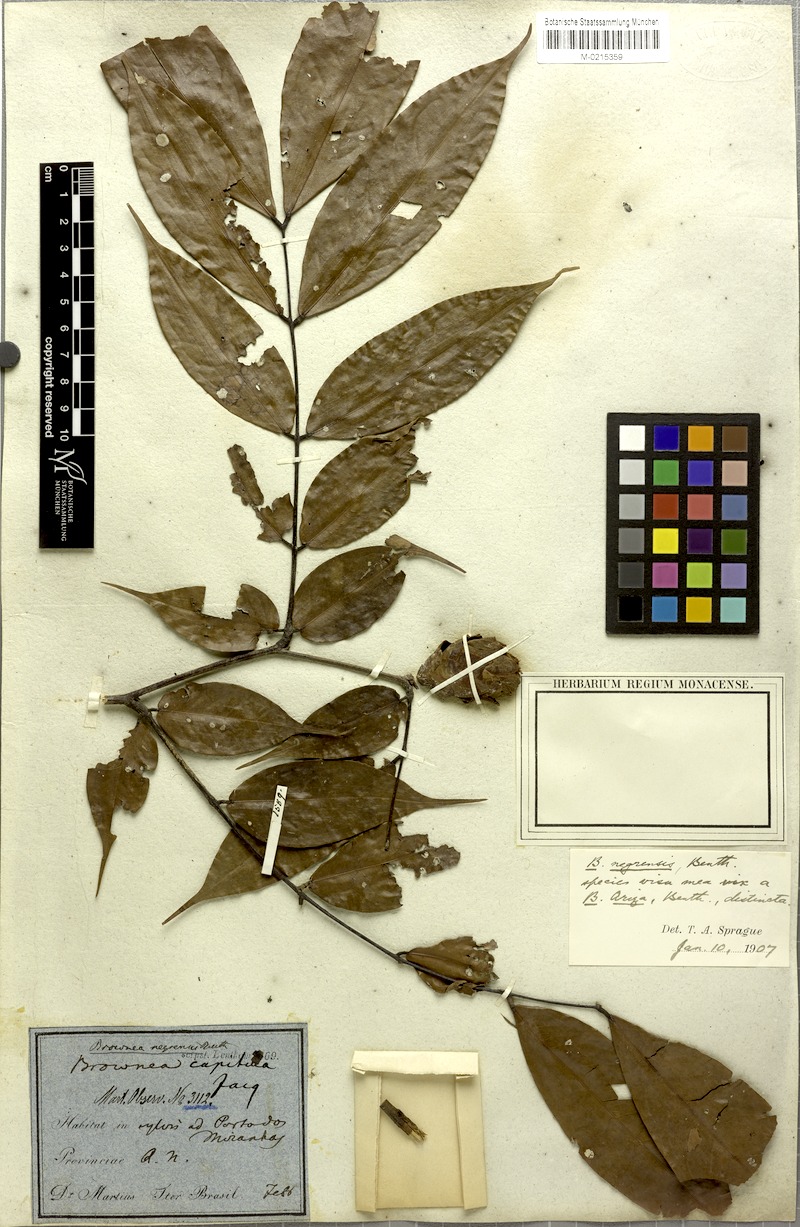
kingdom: Plantae
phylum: Tracheophyta
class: Magnoliopsida
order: Fabales
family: Fabaceae
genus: Brownea
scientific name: Brownea negrensis
